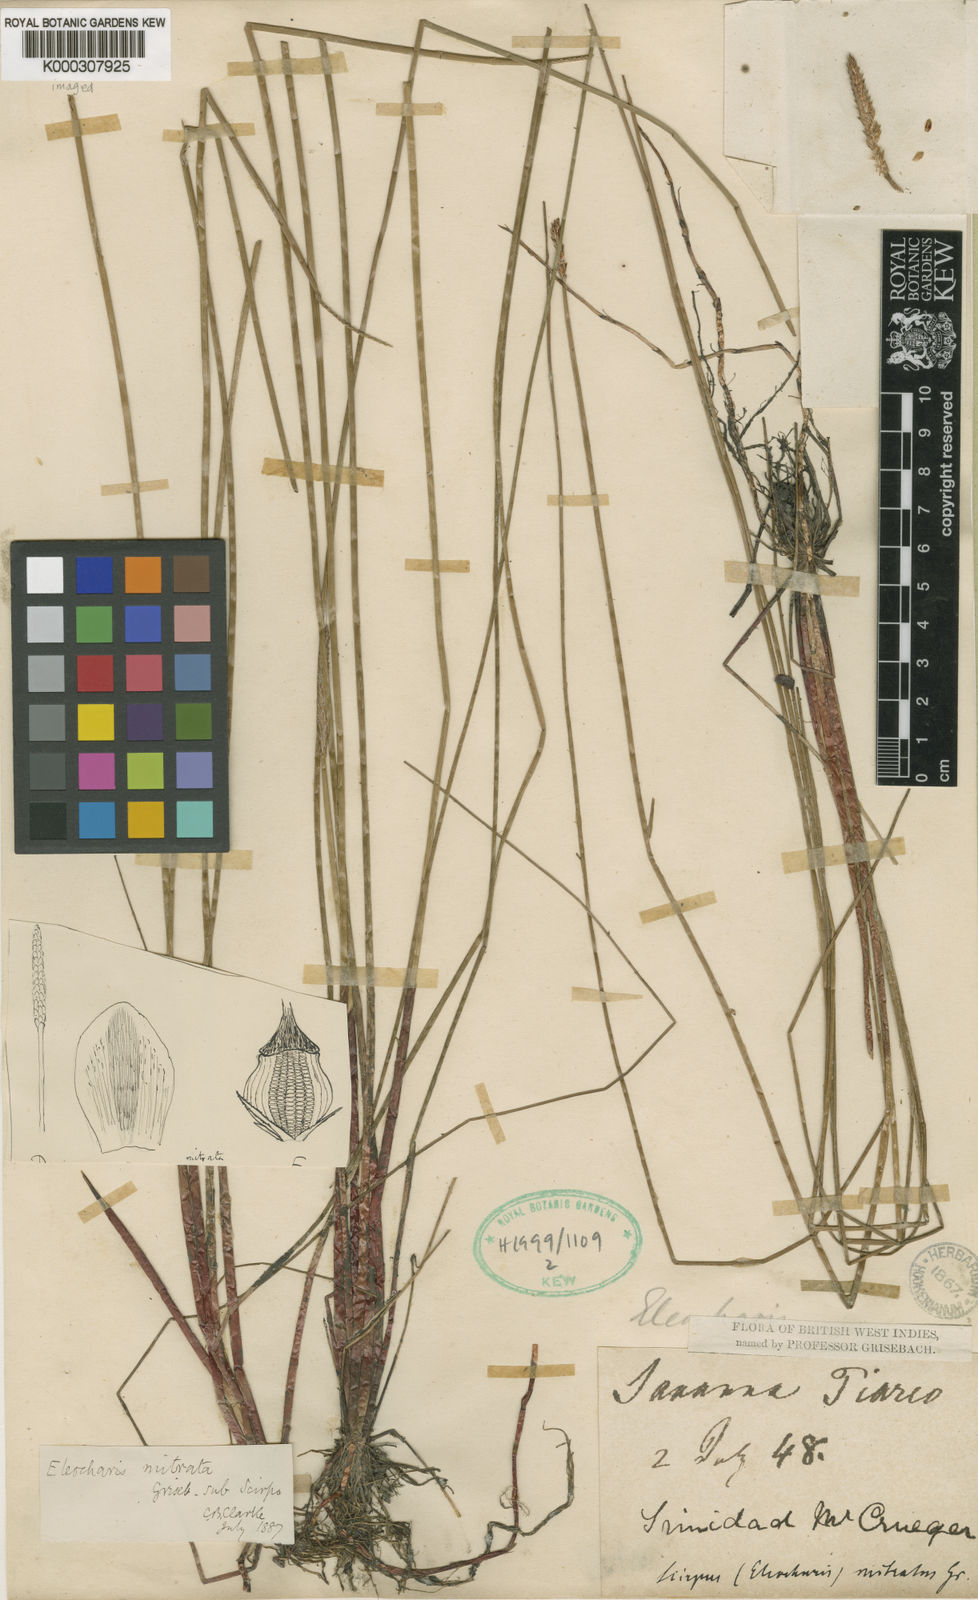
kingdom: Plantae
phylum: Tracheophyta
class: Liliopsida
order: Poales
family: Cyperaceae
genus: Eleocharis
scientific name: Eleocharis tiarata
